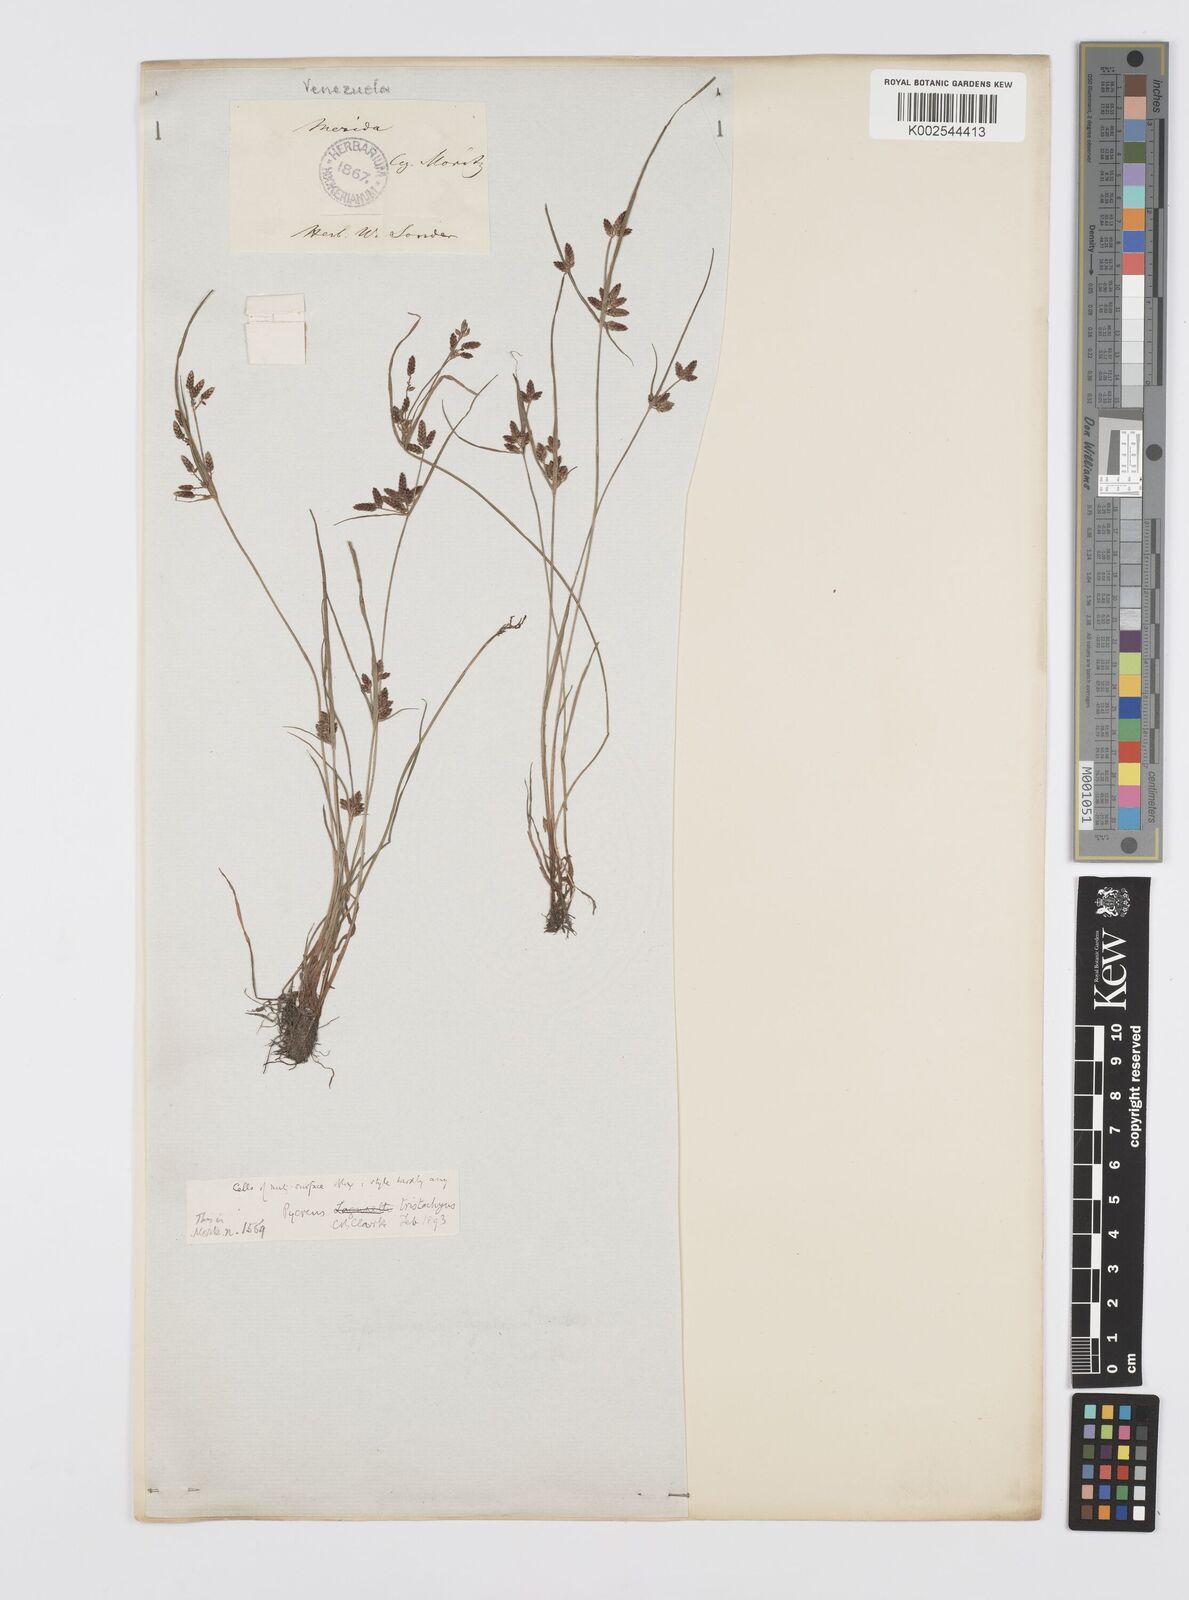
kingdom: Plantae
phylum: Tracheophyta
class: Liliopsida
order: Poales
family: Cyperaceae
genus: Cyperus
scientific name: Cyperus flavescens
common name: Yellow galingale
